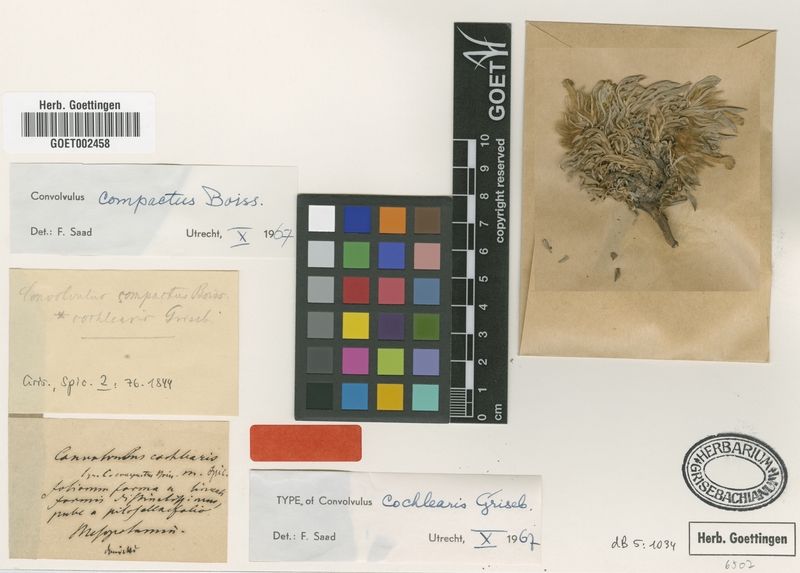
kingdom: Plantae
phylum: Tracheophyta
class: Magnoliopsida
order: Solanales
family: Convolvulaceae
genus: Convolvulus
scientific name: Convolvulus boissieri
